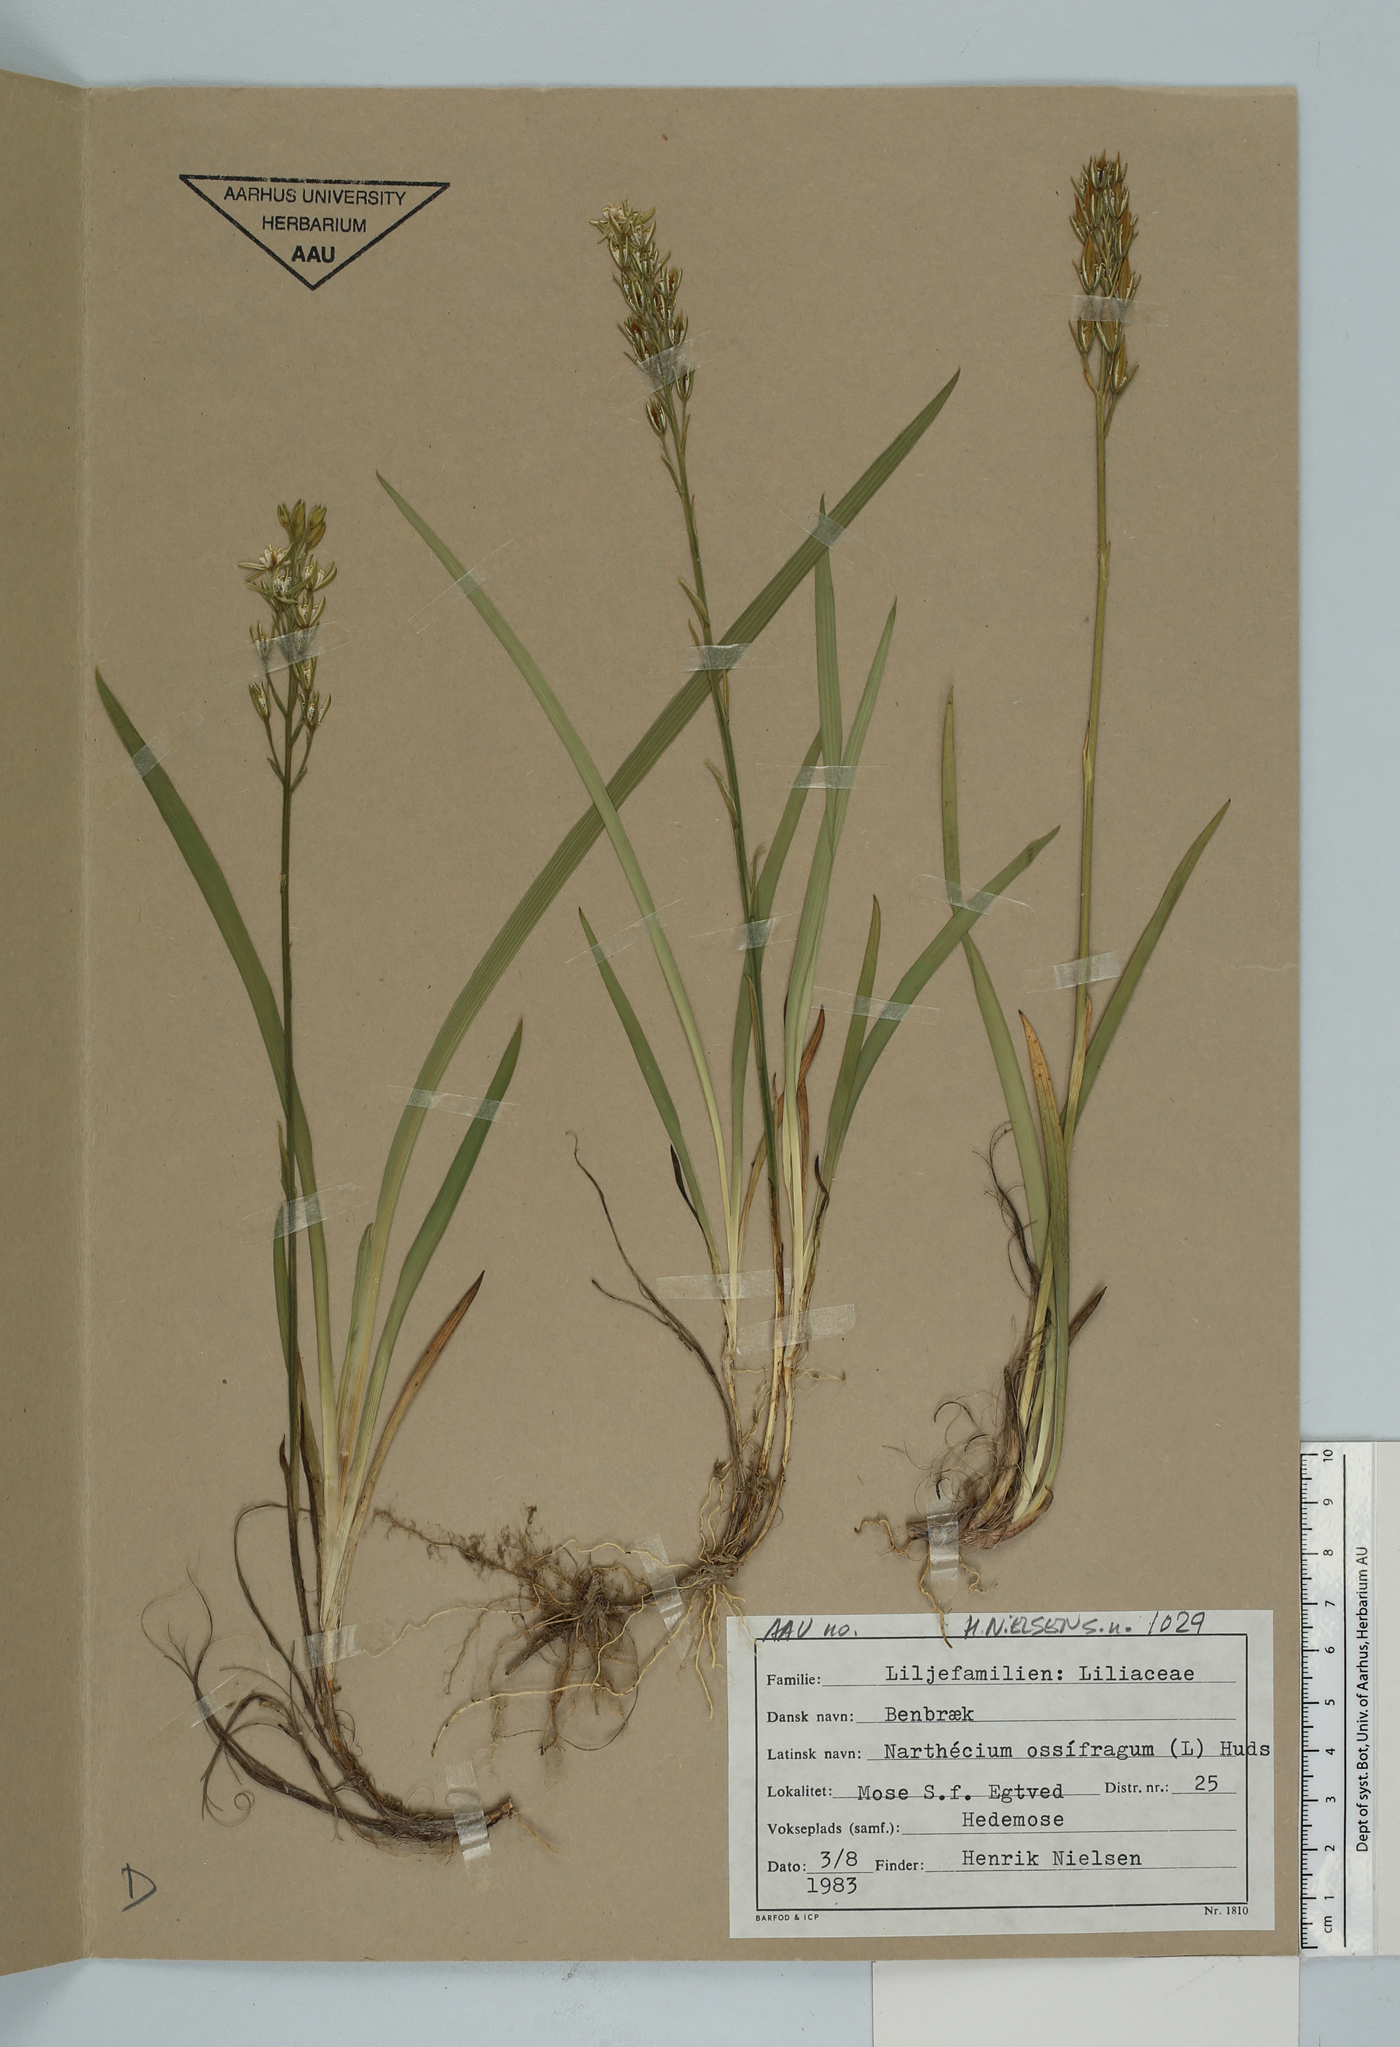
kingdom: Plantae
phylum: Tracheophyta
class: Liliopsida
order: Dioscoreales
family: Nartheciaceae
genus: Narthecium
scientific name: Narthecium ossifragum
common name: Bog asphodel
